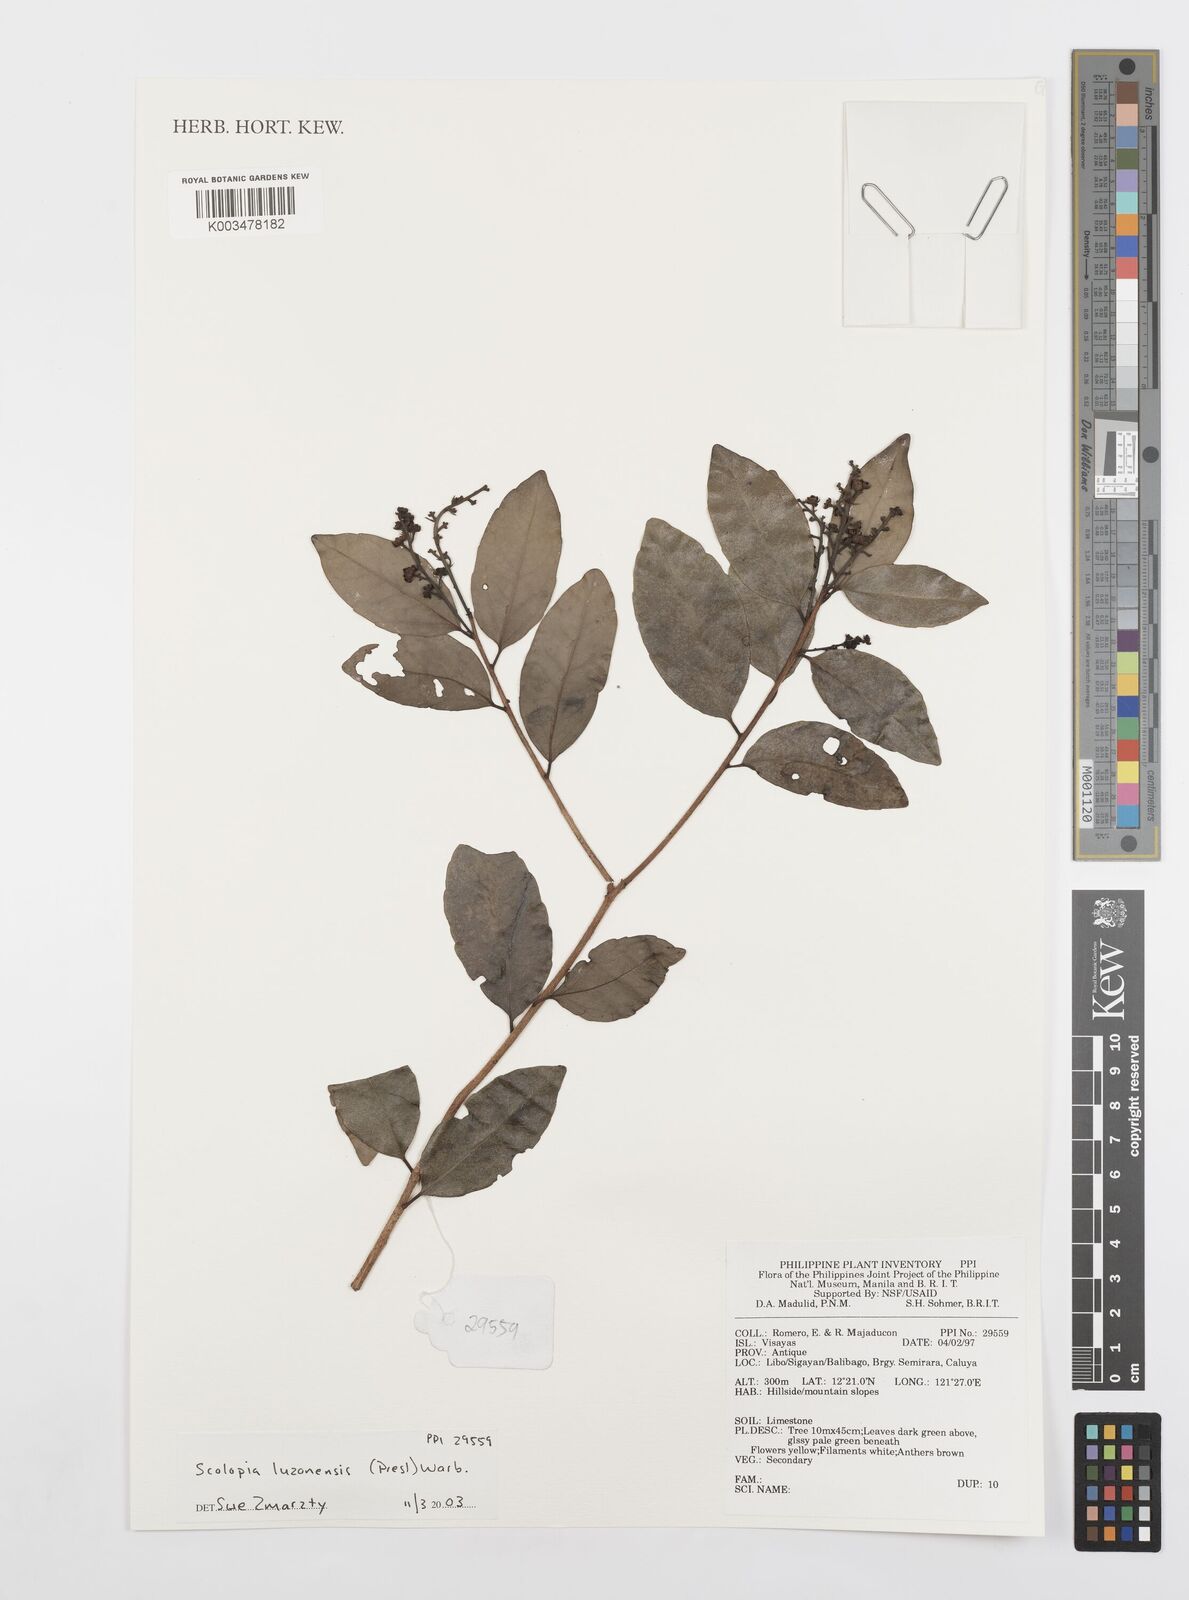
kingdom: Plantae
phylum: Tracheophyta
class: Magnoliopsida
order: Malpighiales
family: Salicaceae
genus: Scolopia
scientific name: Scolopia luzonensis
